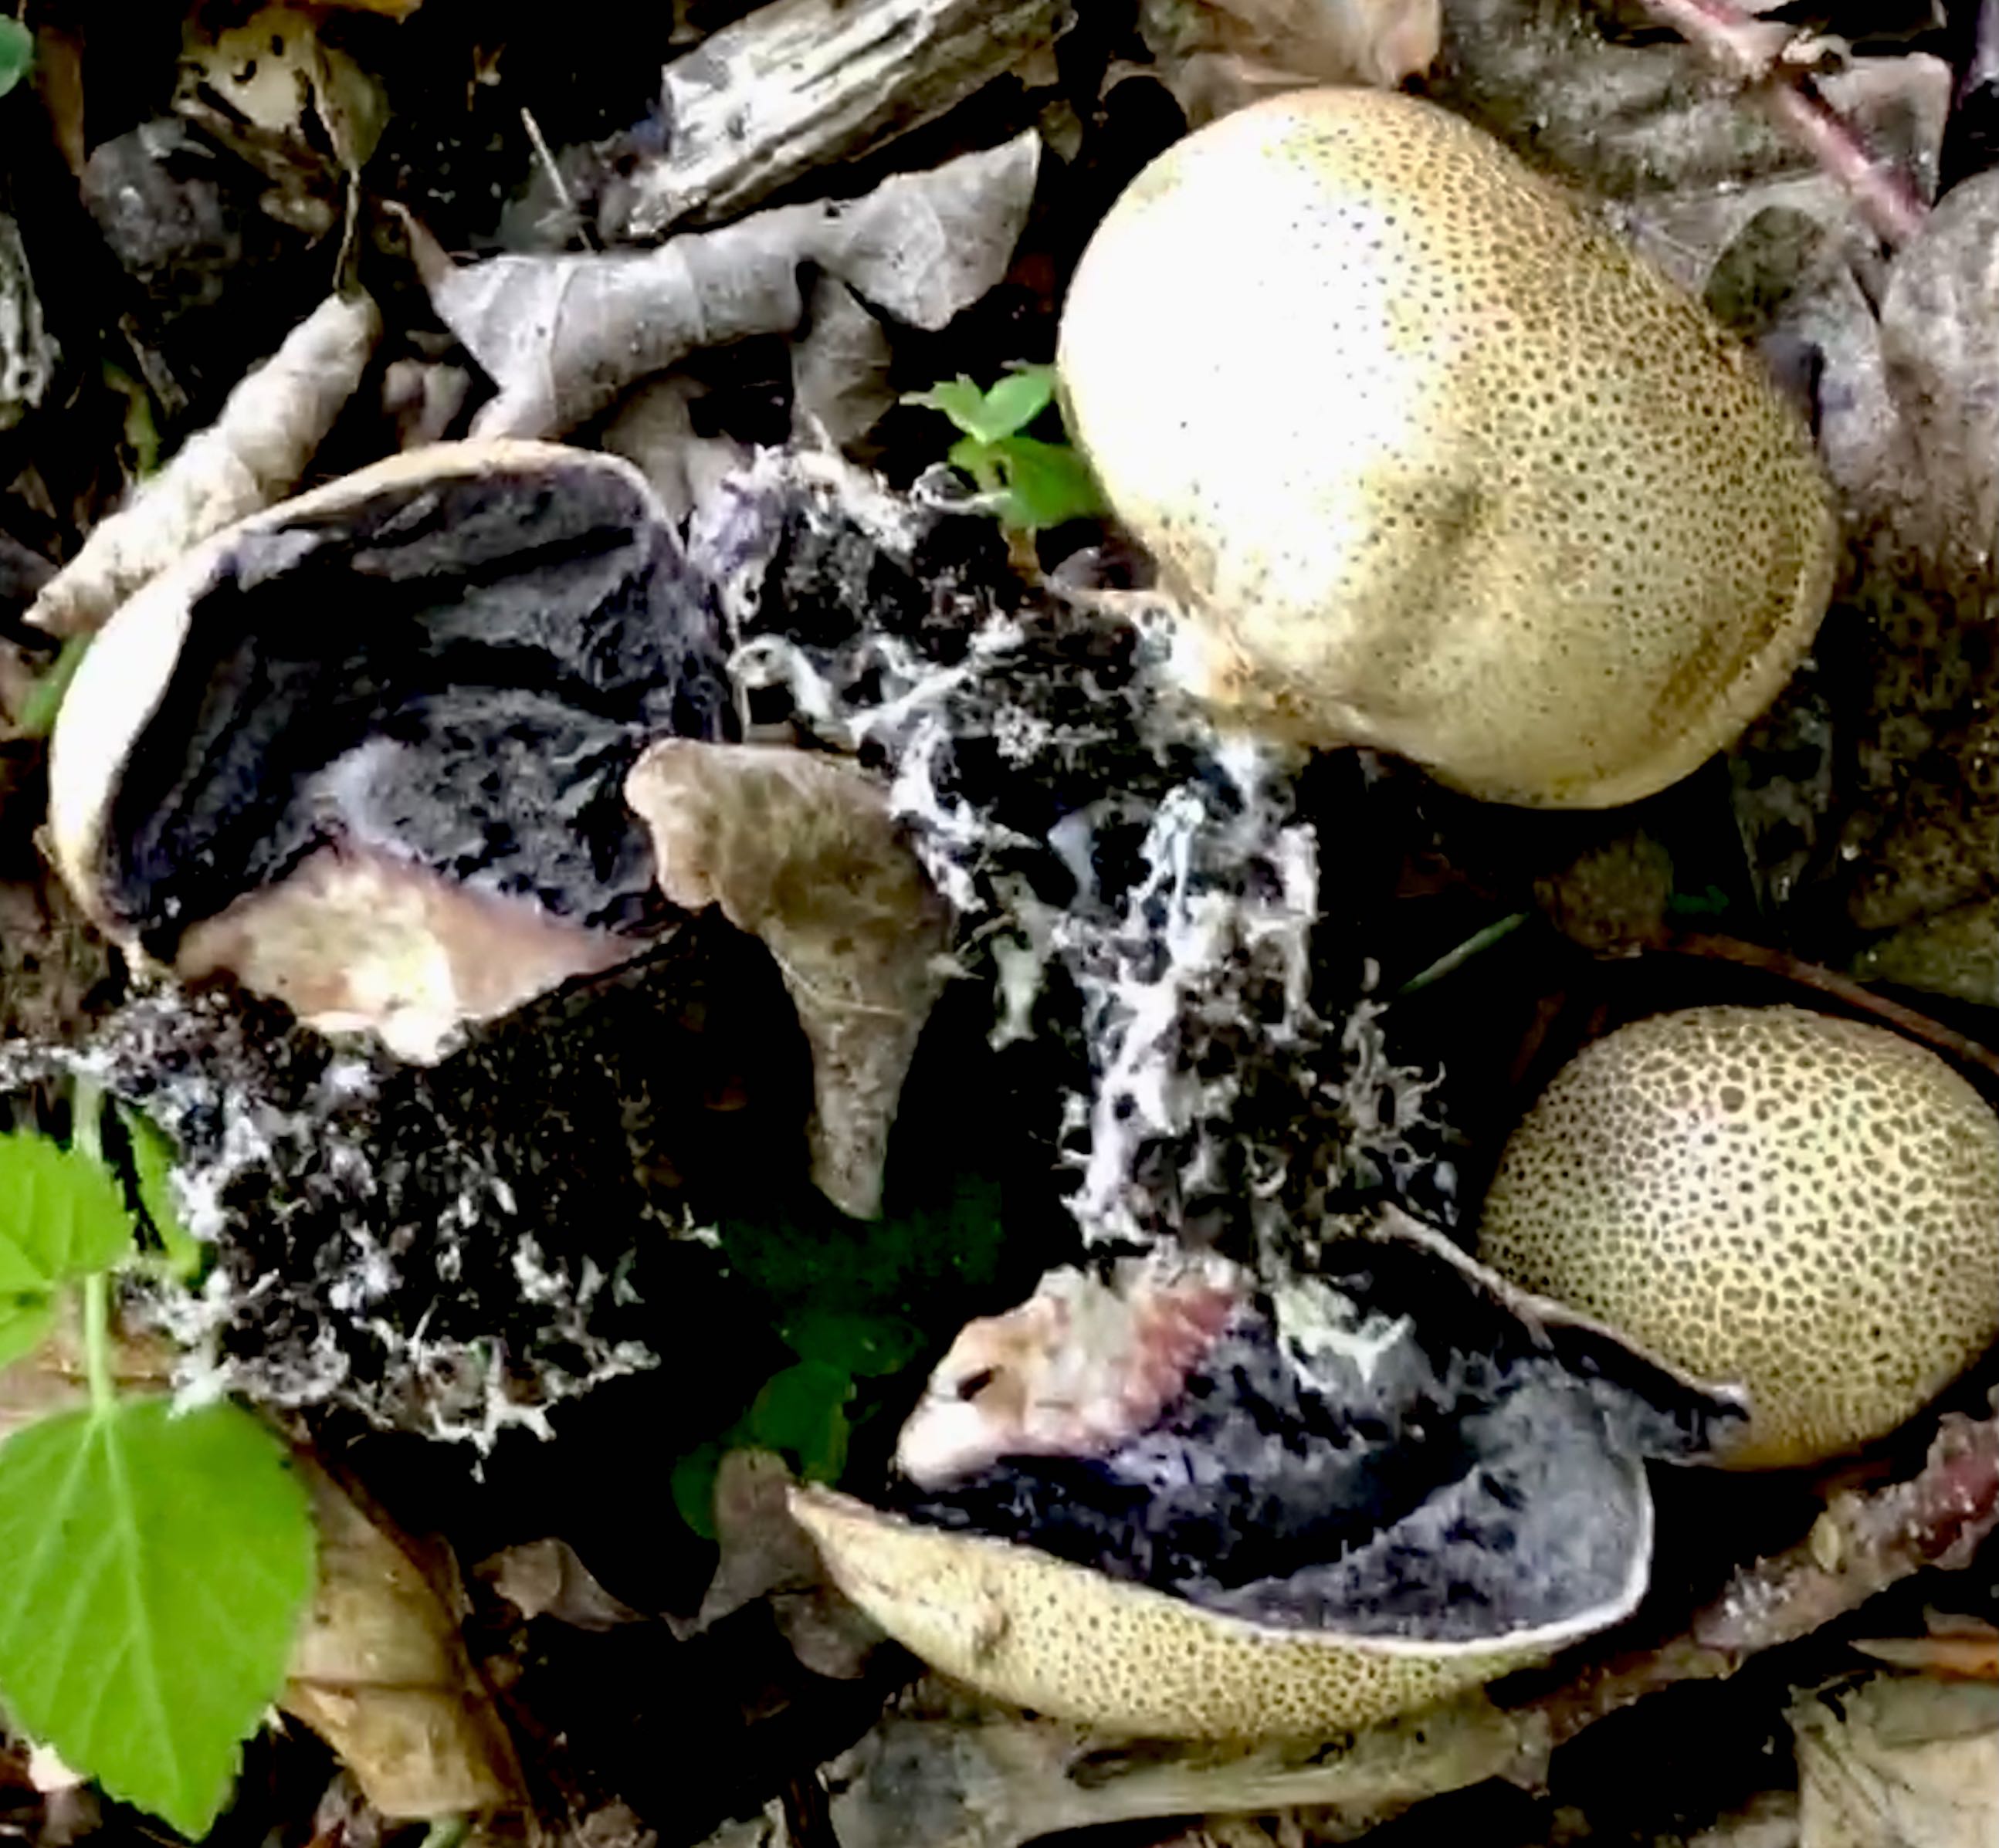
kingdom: Fungi
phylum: Basidiomycota
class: Agaricomycetes
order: Boletales
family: Sclerodermataceae
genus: Scleroderma
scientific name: Scleroderma areolatum
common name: plettet bruskbold
